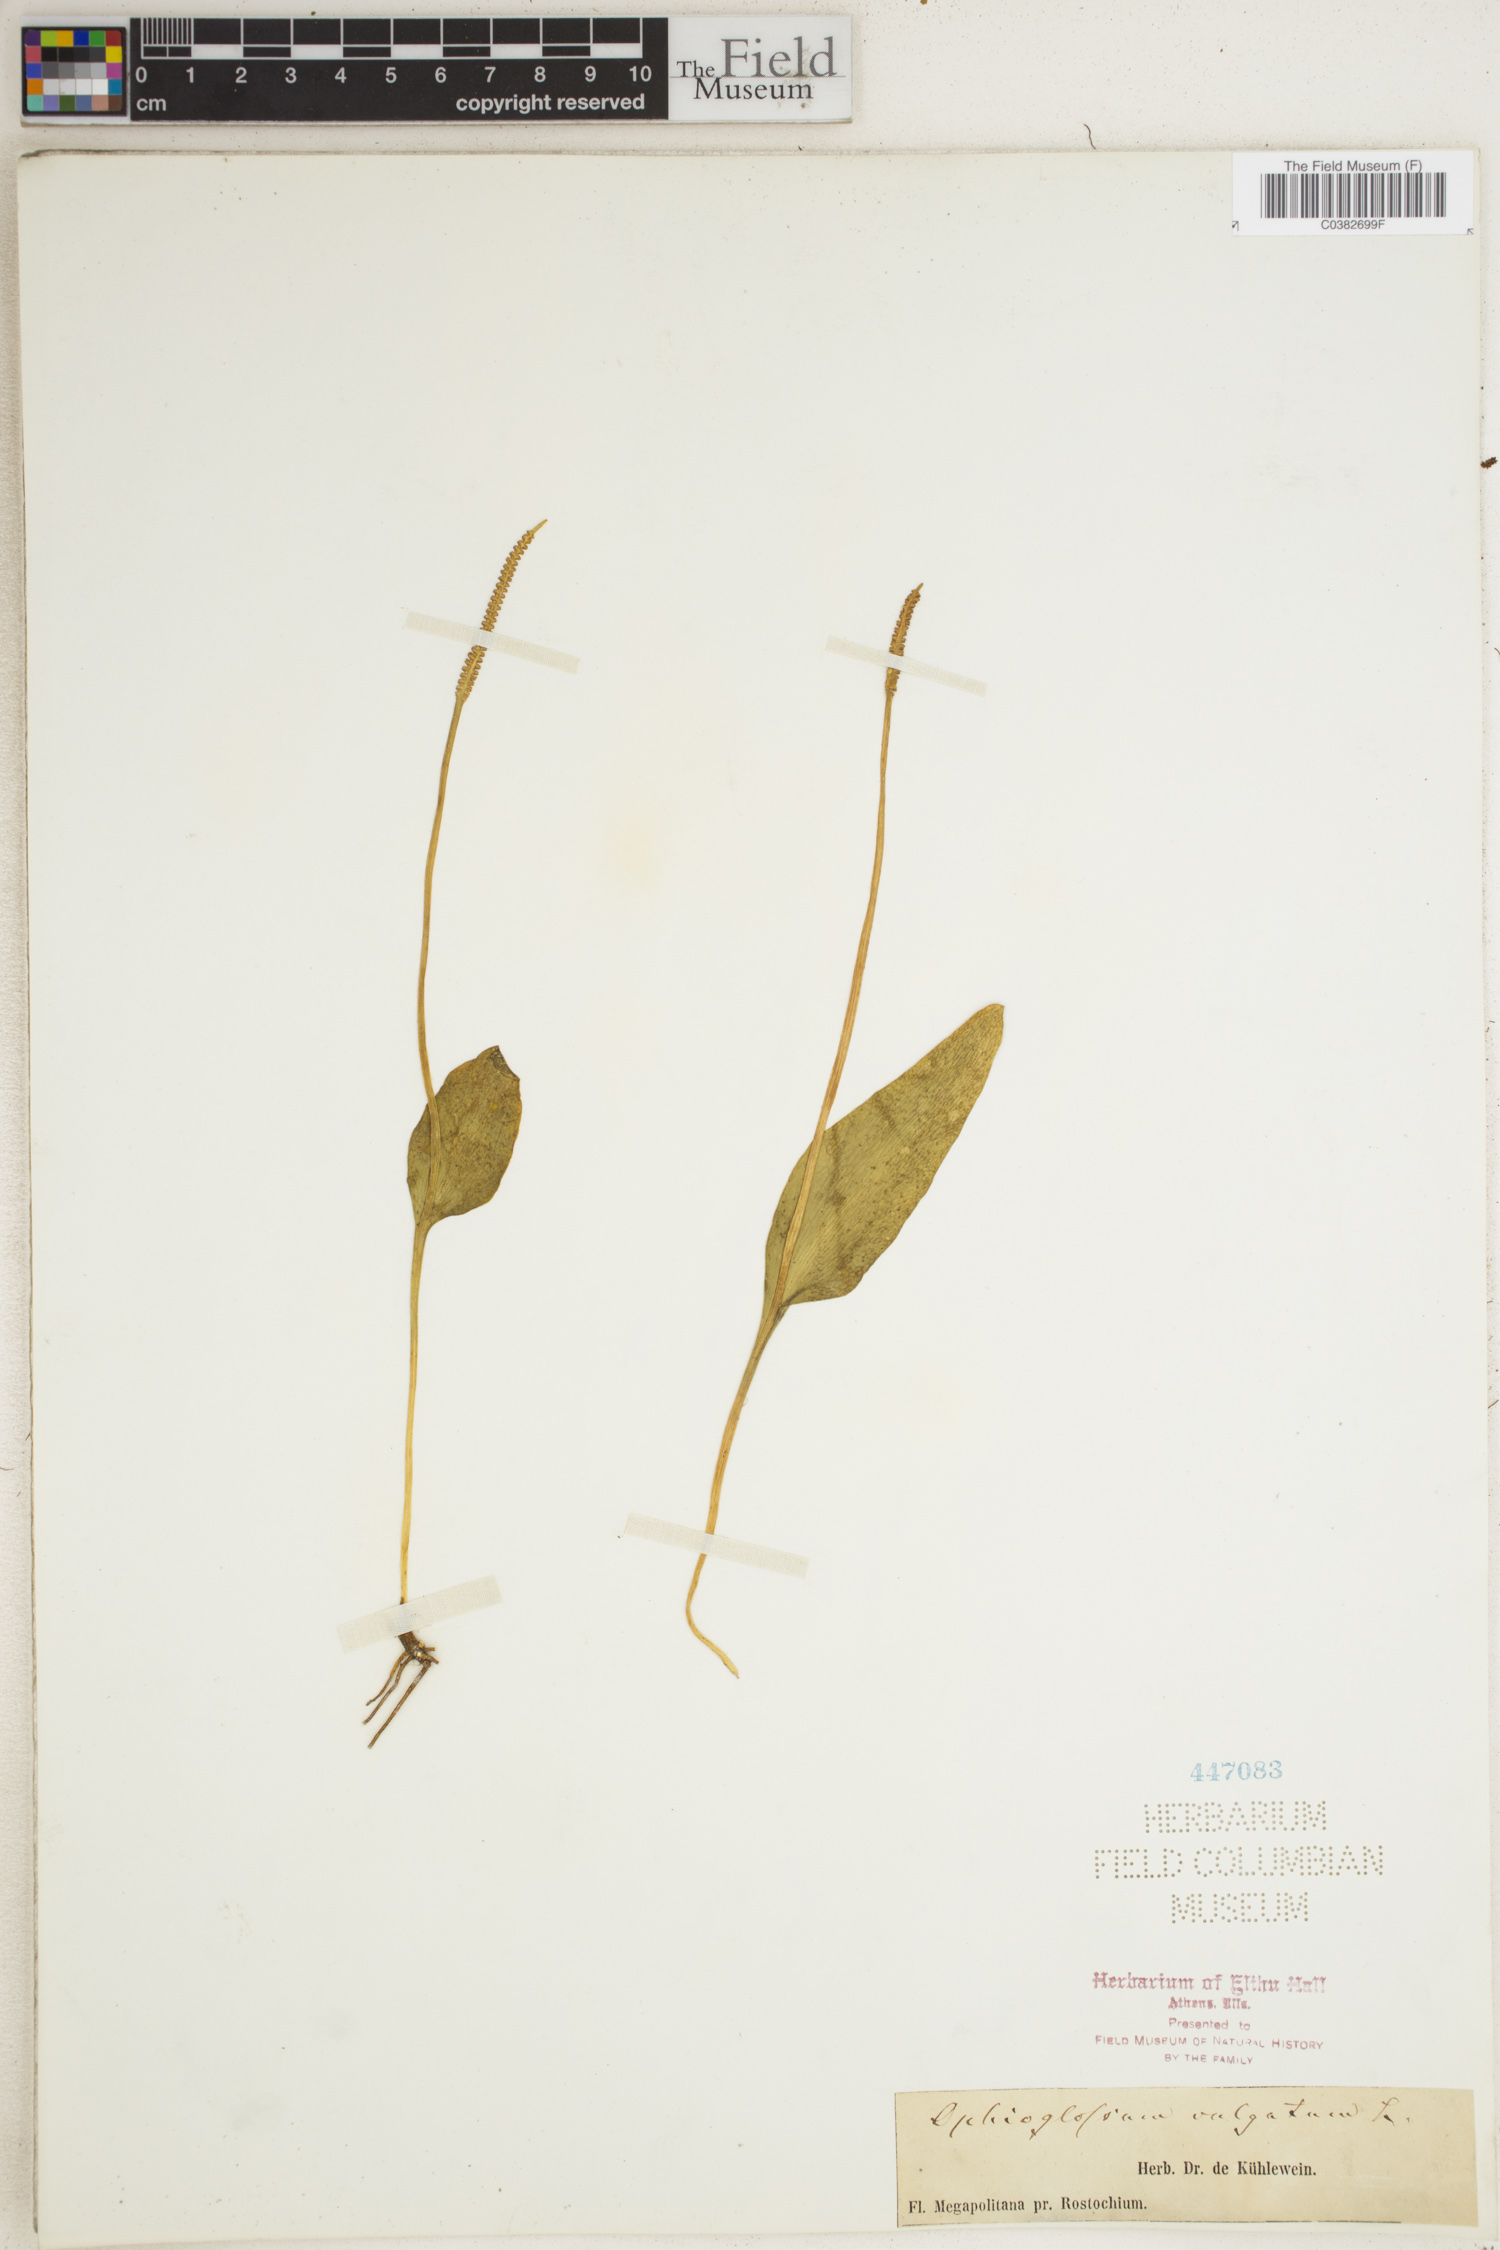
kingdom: Plantae
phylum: Tracheophyta
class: Polypodiopsida
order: Ophioglossales
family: Ophioglossaceae
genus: Ophioglossum
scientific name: Ophioglossum vulgatum
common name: Adder's-tongue
